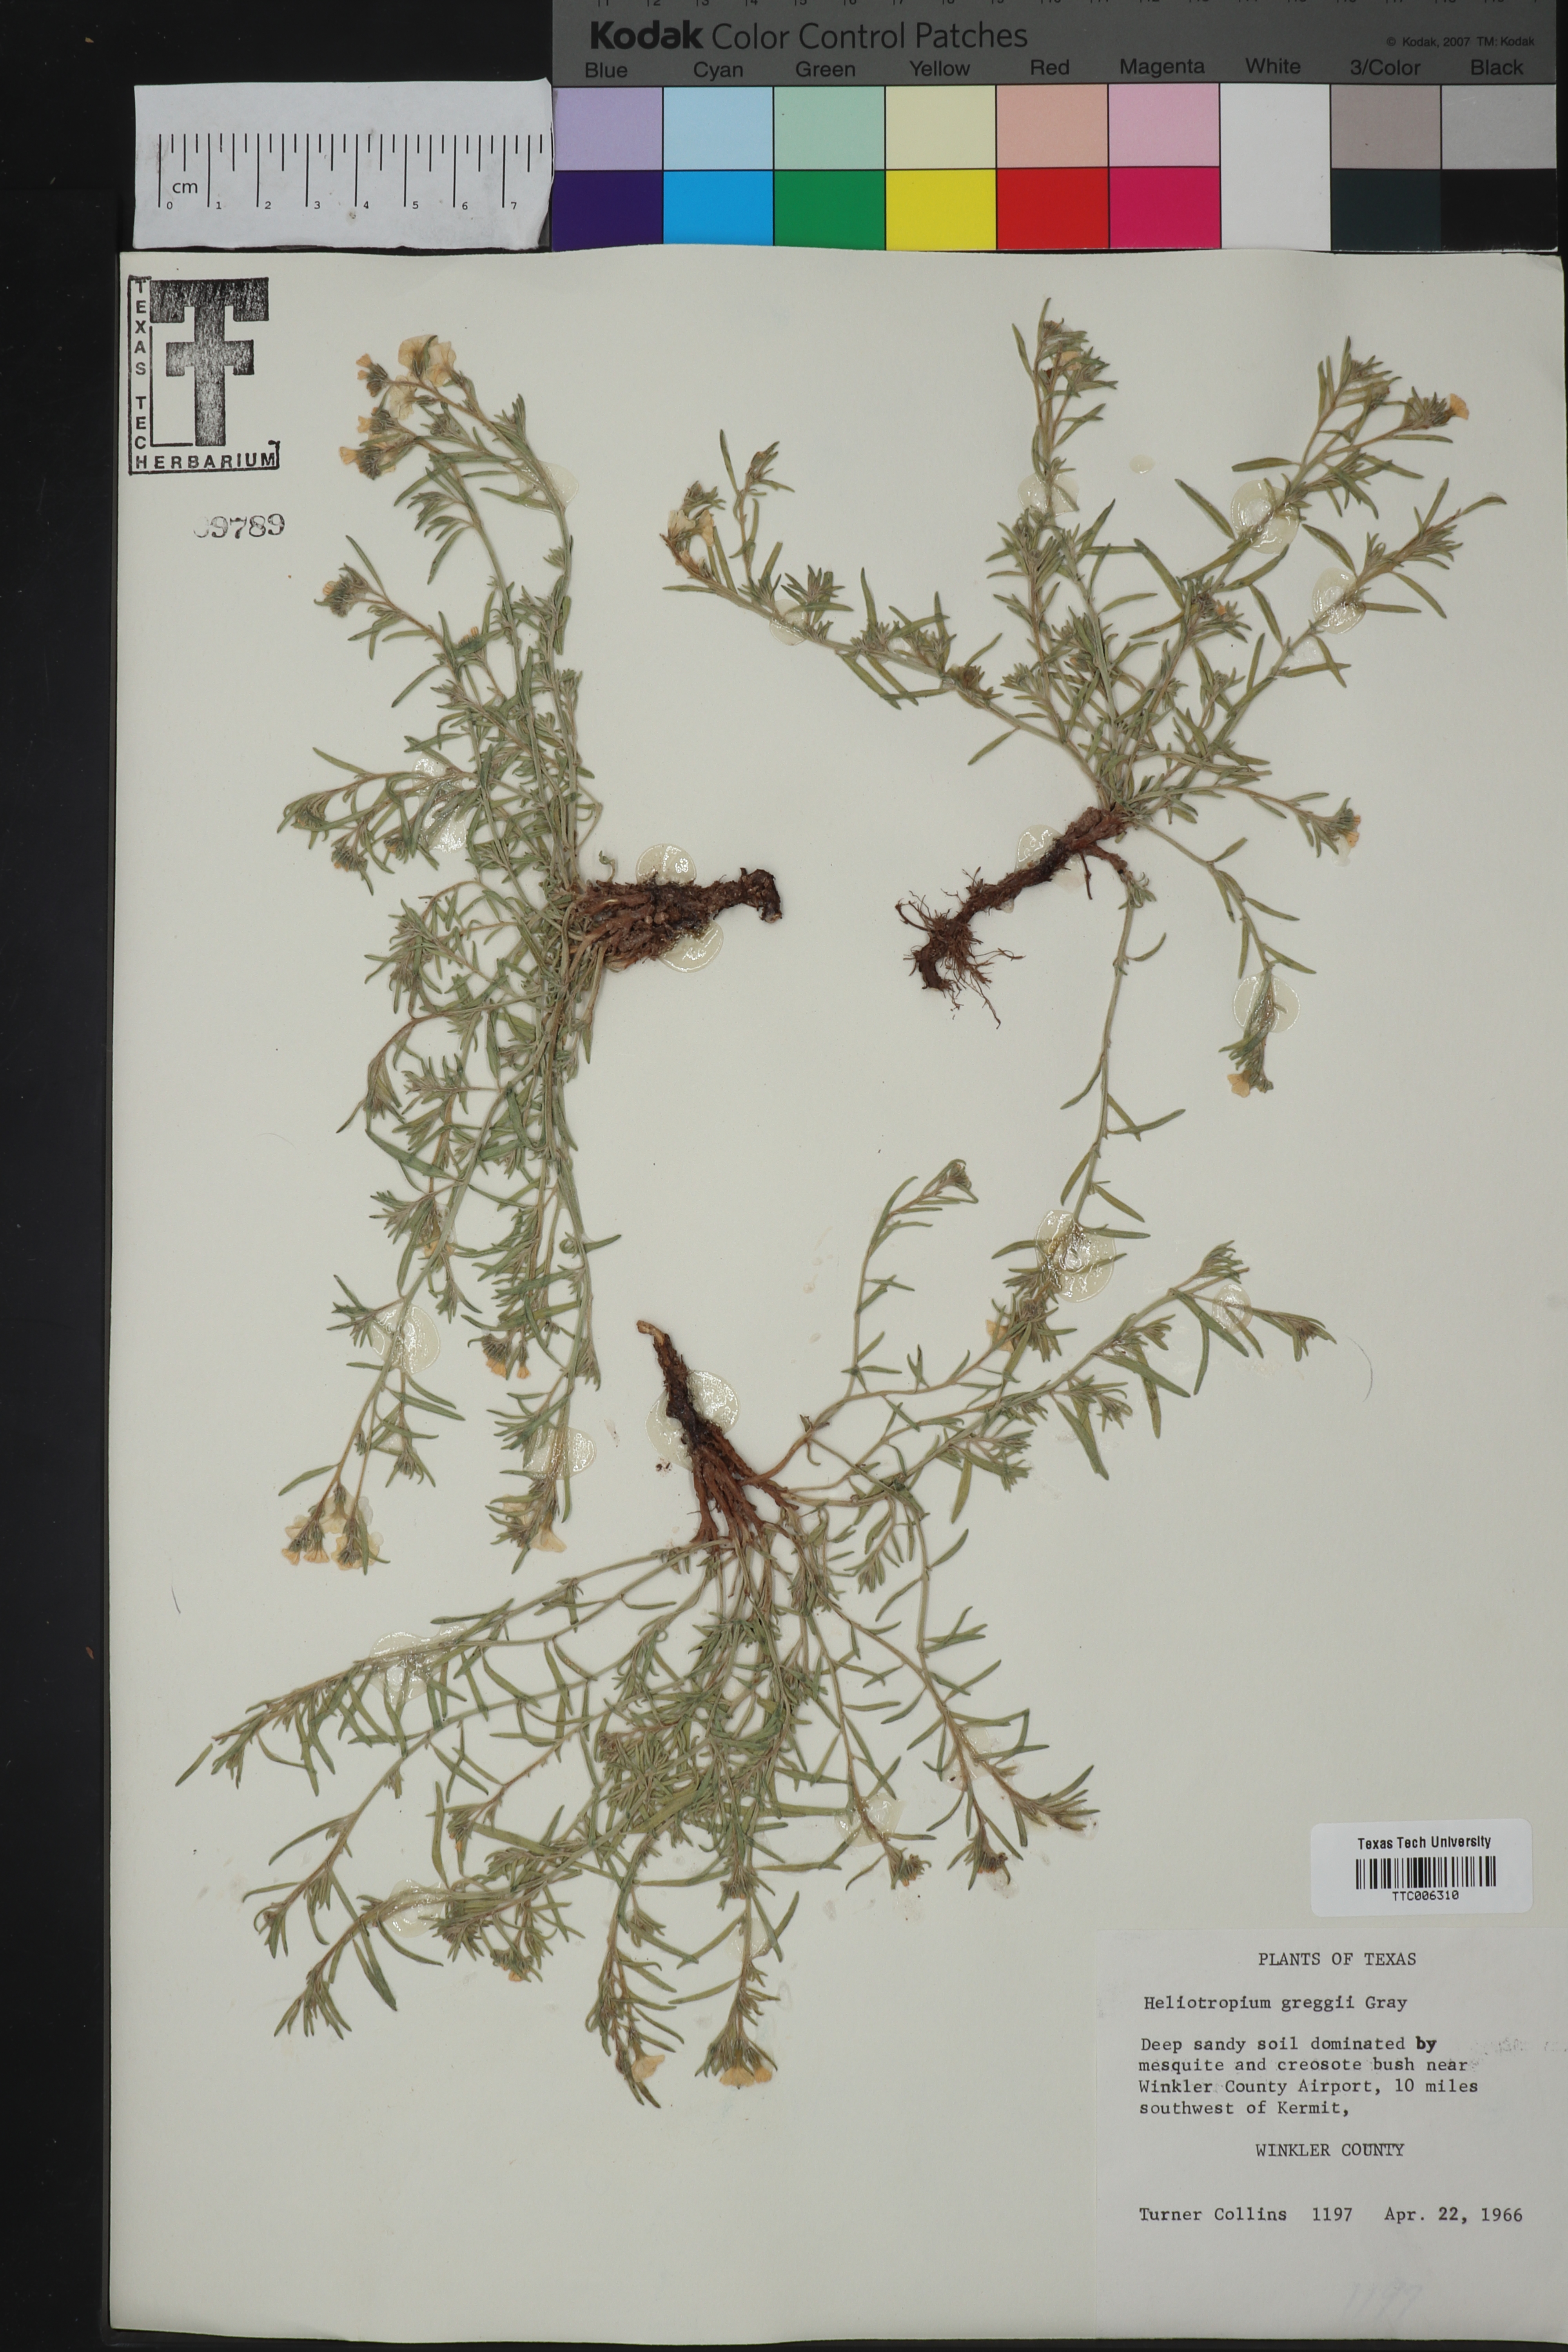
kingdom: Plantae
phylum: Tracheophyta
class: Magnoliopsida
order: Boraginales
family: Heliotropiaceae
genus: Euploca
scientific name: Euploca greggii
